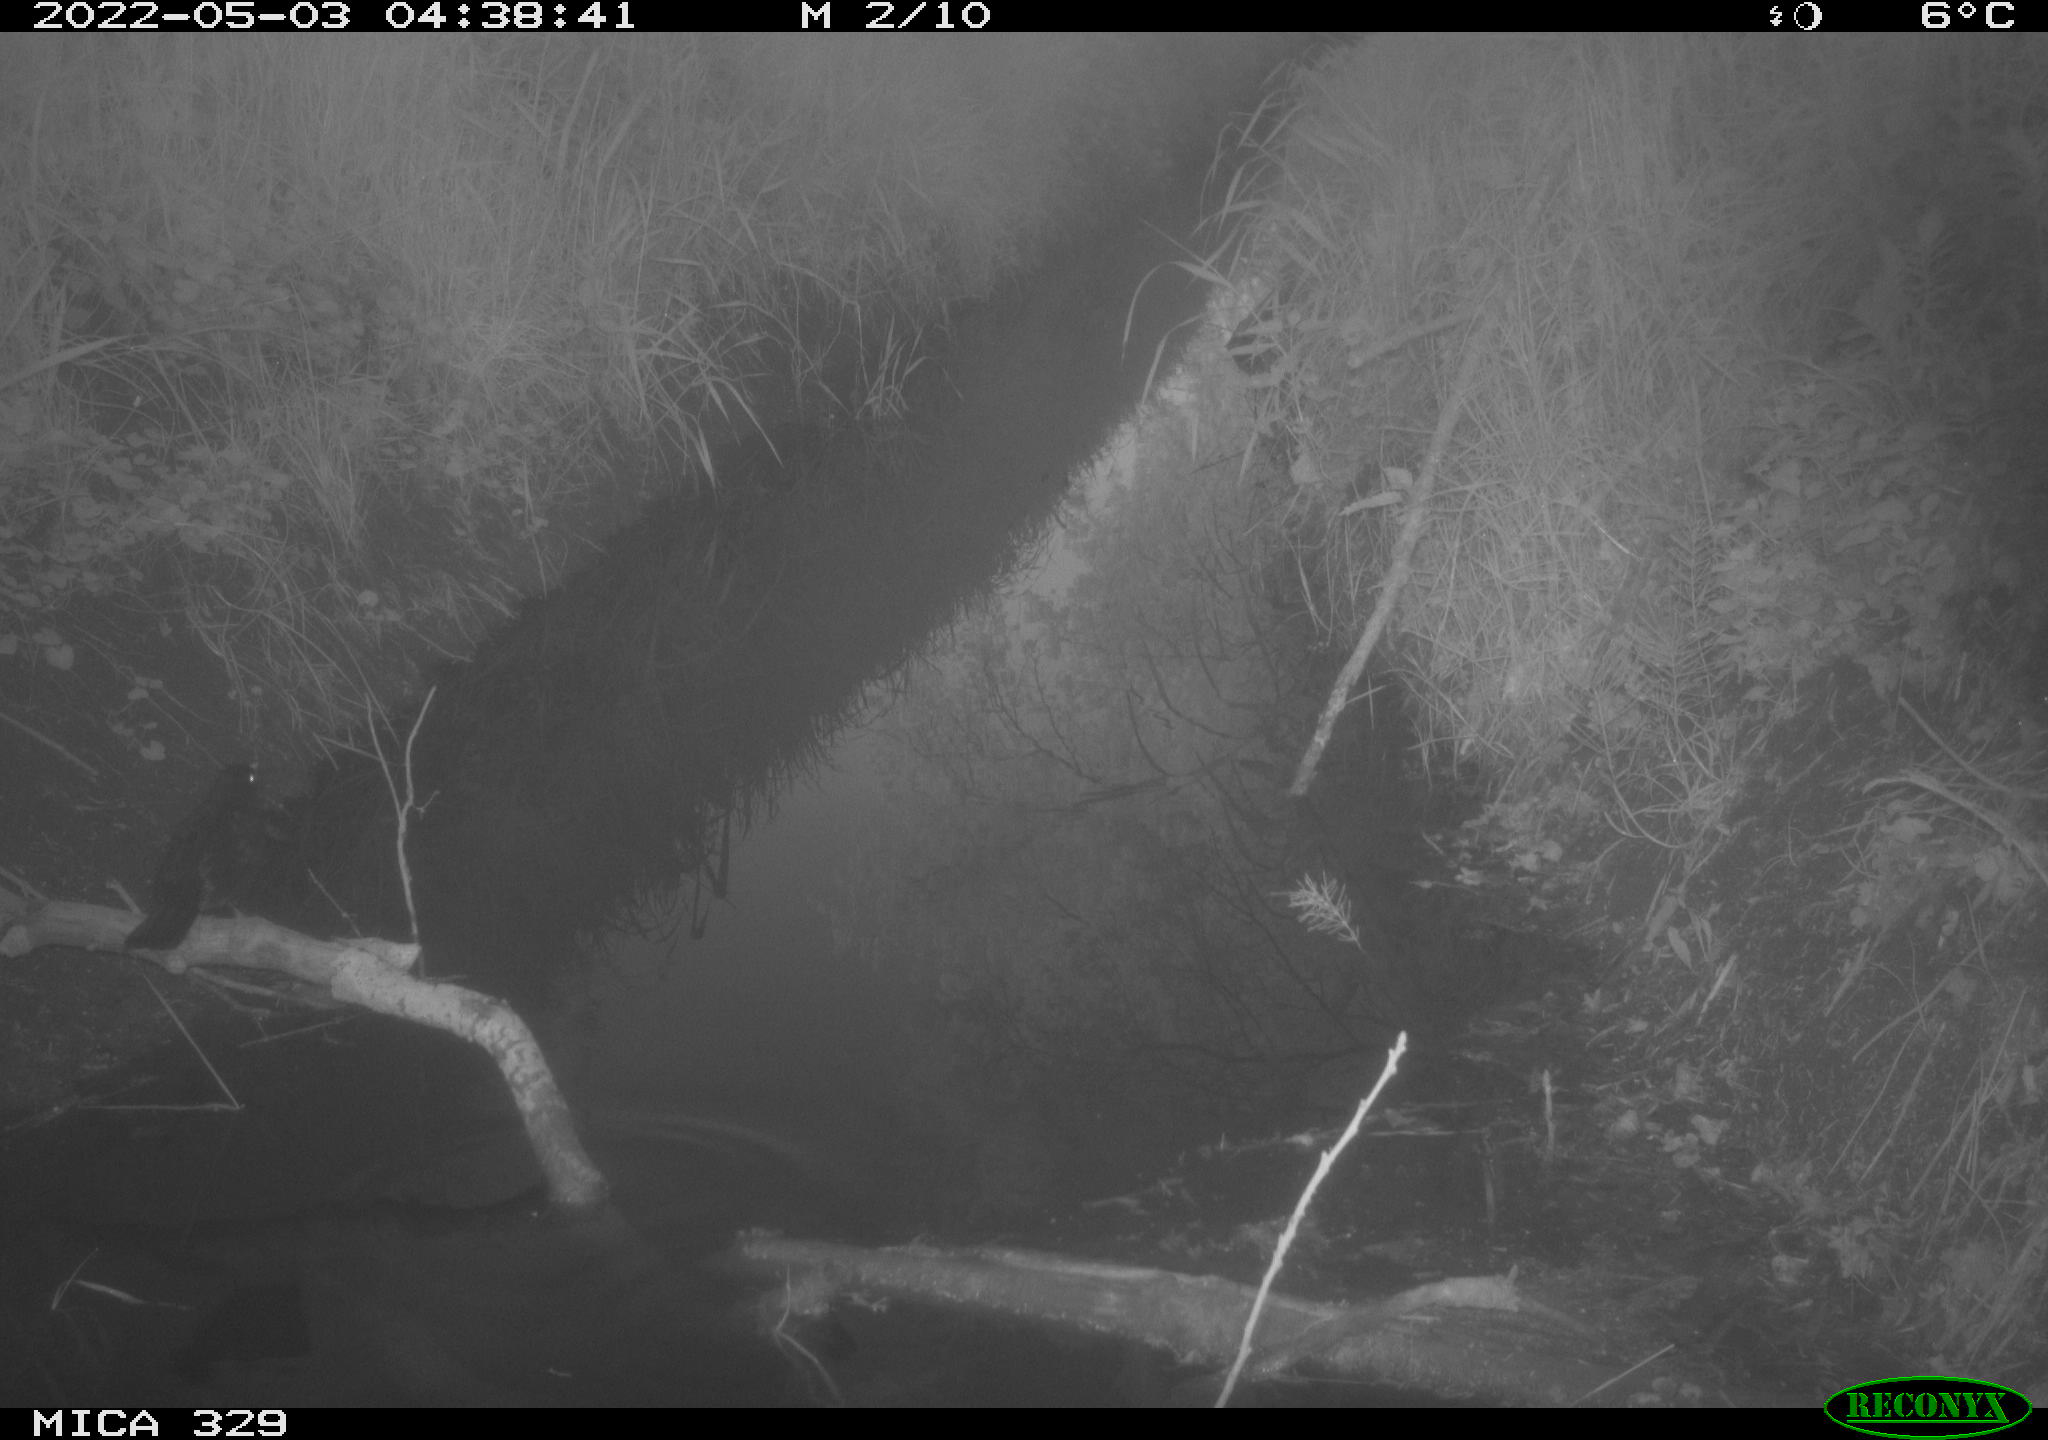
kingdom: Animalia
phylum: Chordata
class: Aves
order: Passeriformes
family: Turdidae
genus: Turdus
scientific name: Turdus merula
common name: Common blackbird
